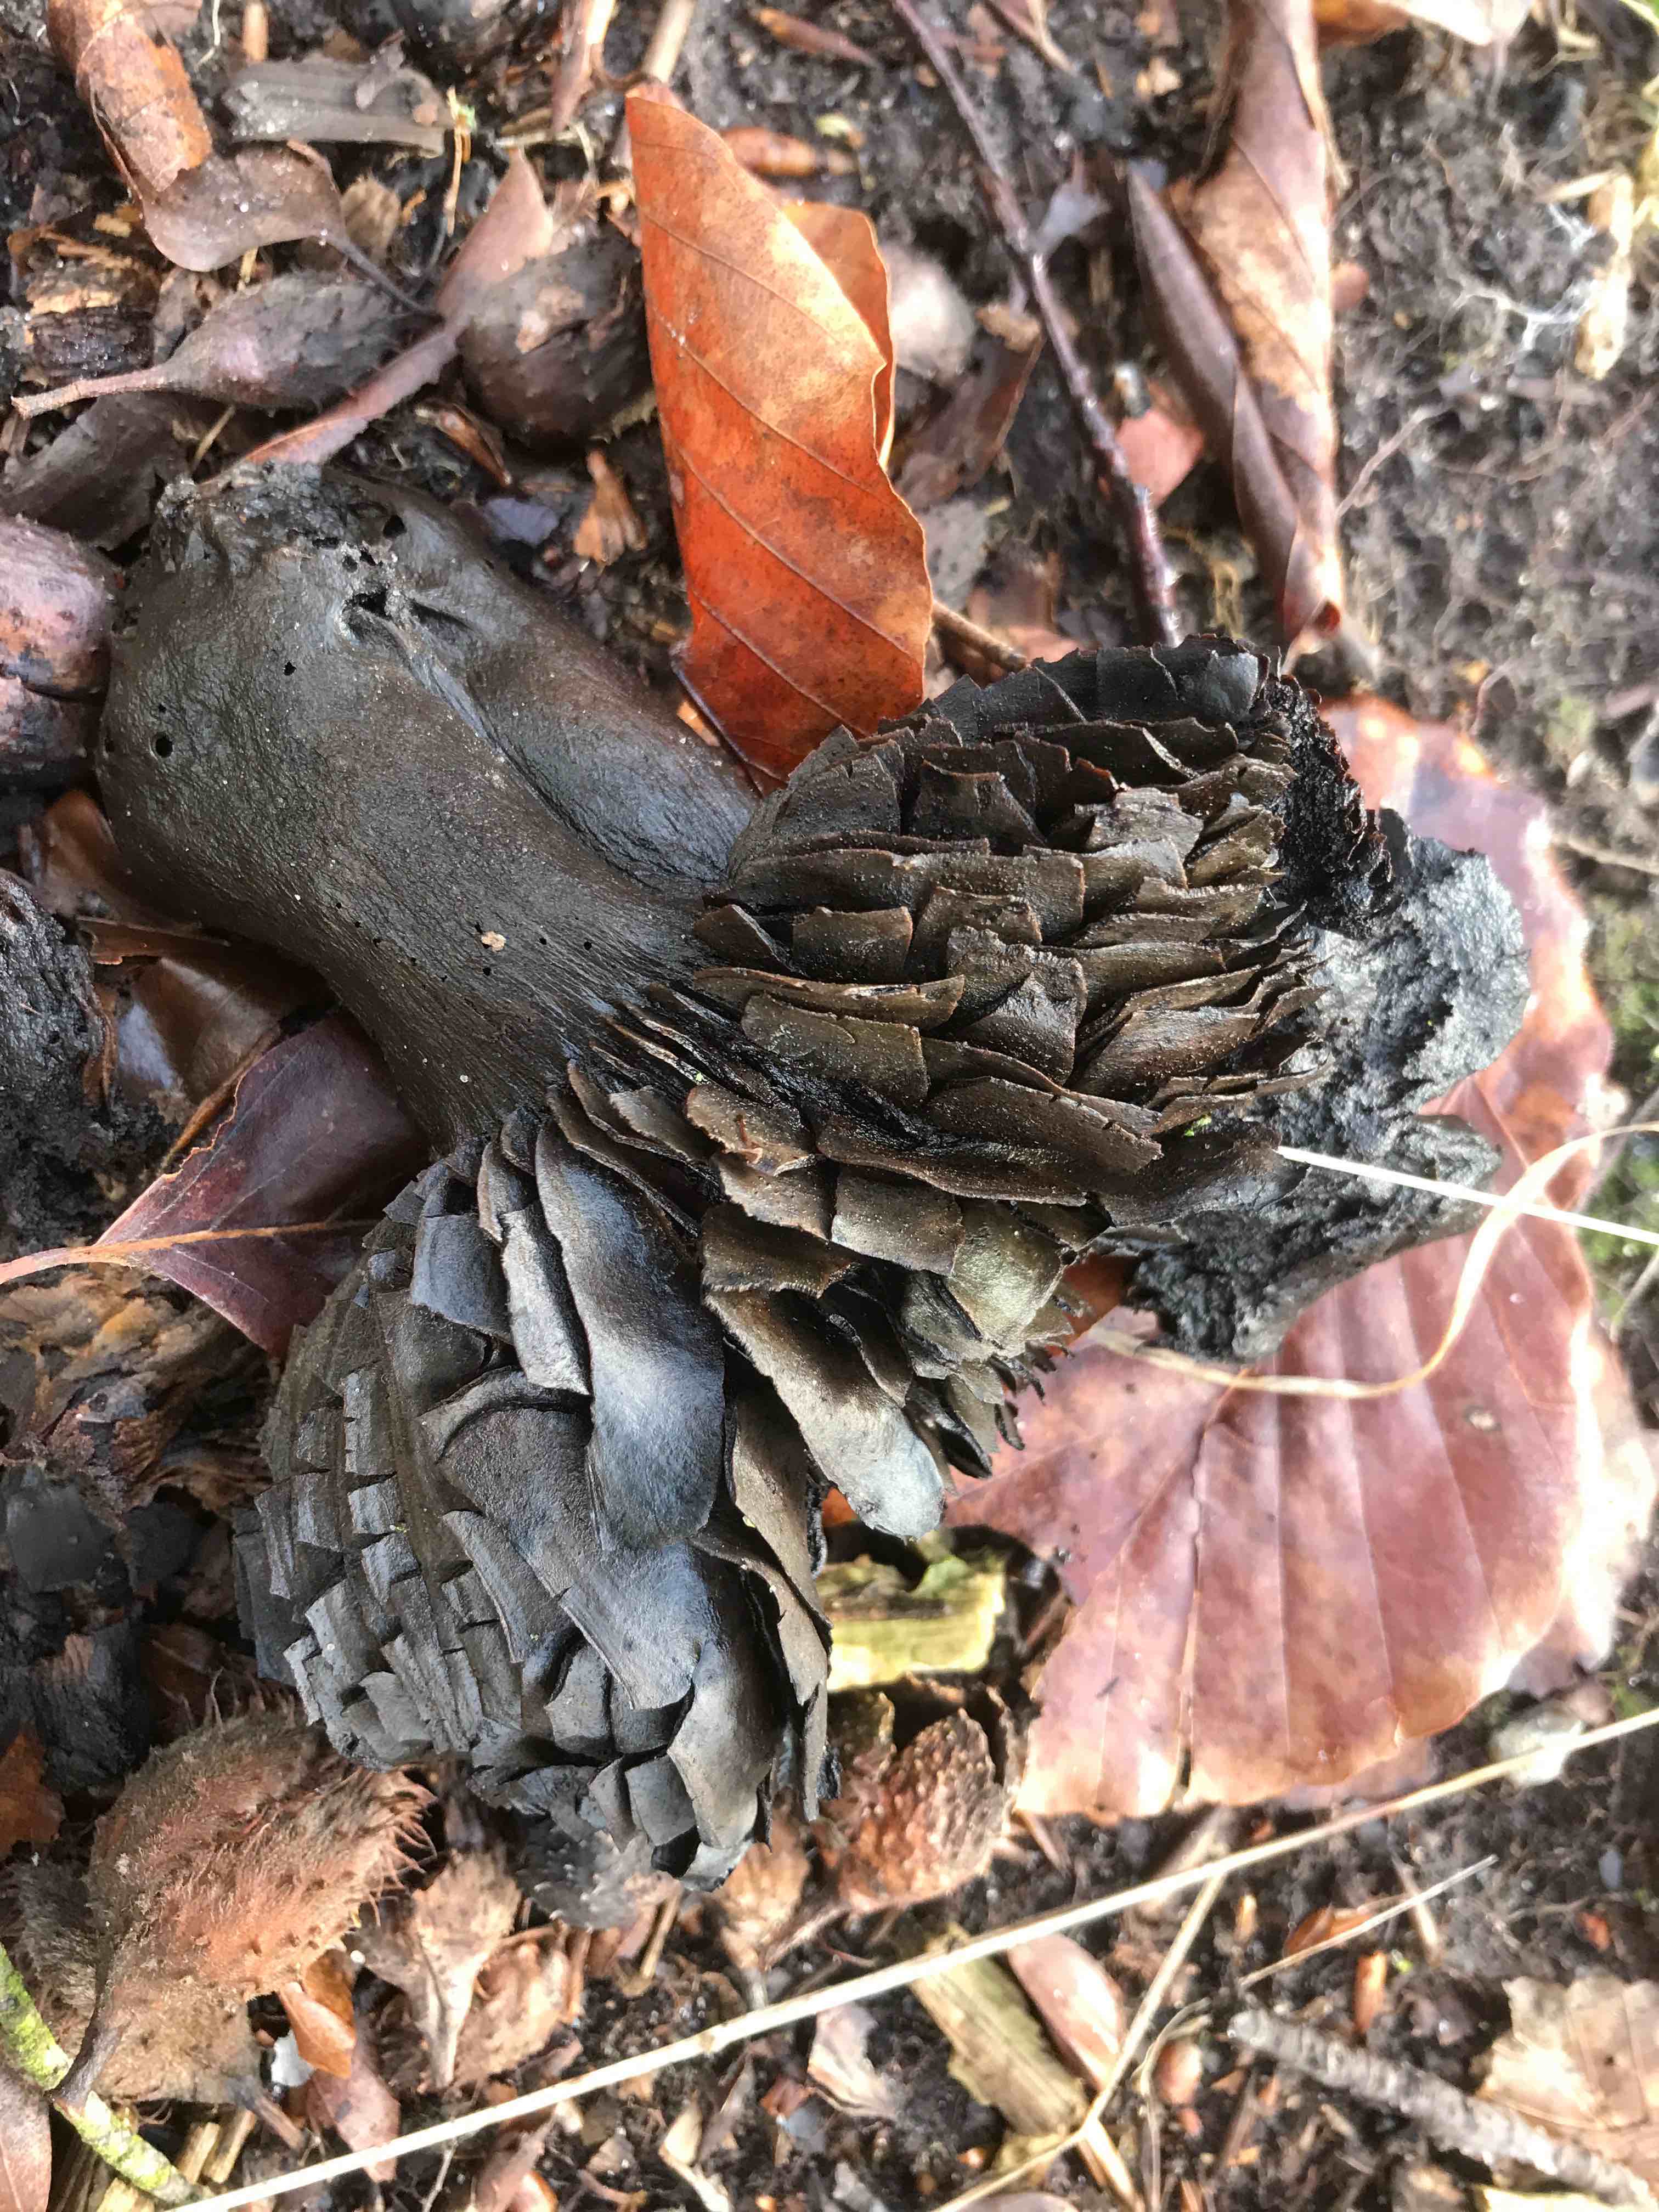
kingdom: Fungi
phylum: Basidiomycota
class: Agaricomycetes
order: Russulales
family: Russulaceae
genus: Russula
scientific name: Russula adusta
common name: sværtende skørhat
